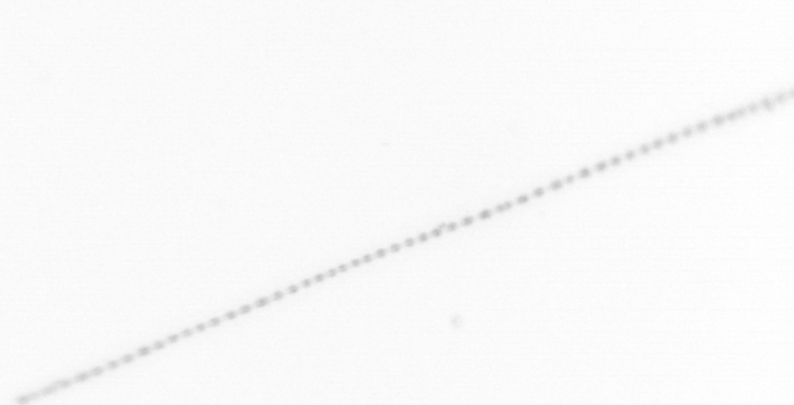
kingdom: Chromista
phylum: Ochrophyta
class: Bacillariophyceae
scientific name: Bacillariophyceae
